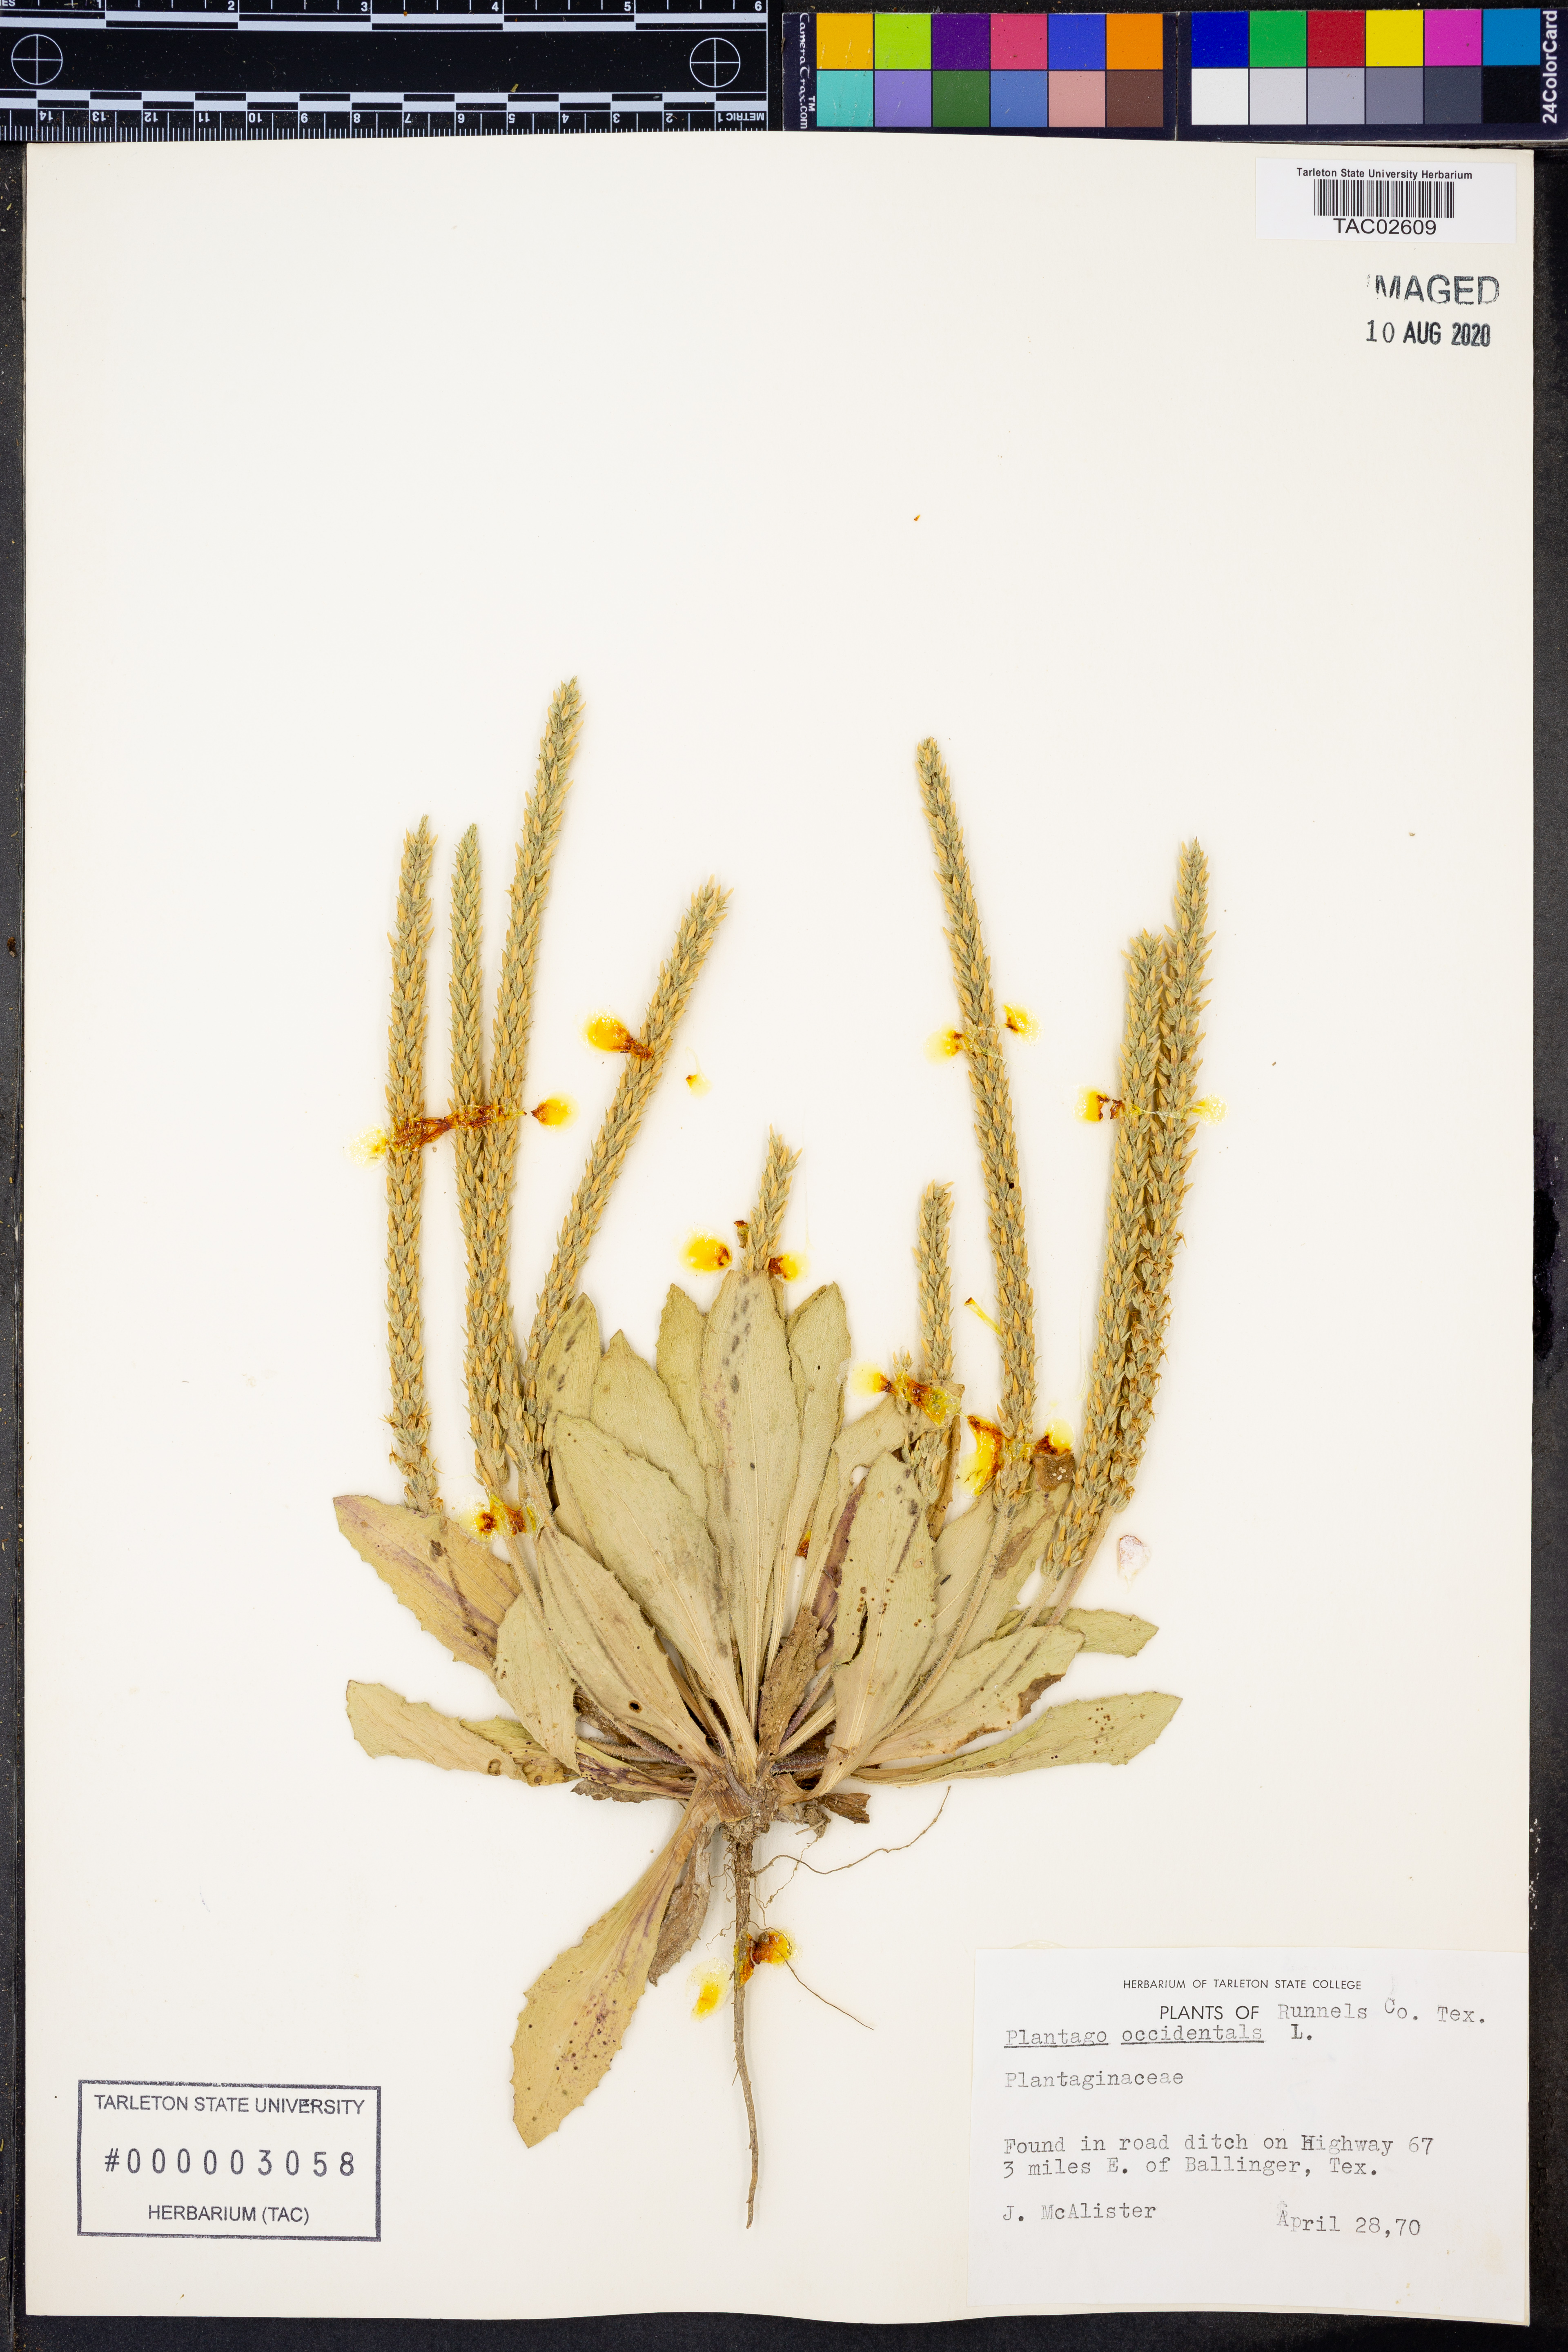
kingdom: Plantae
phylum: Tracheophyta
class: Magnoliopsida
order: Lamiales
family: Plantaginaceae
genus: Plantago
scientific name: Plantago myosuros
